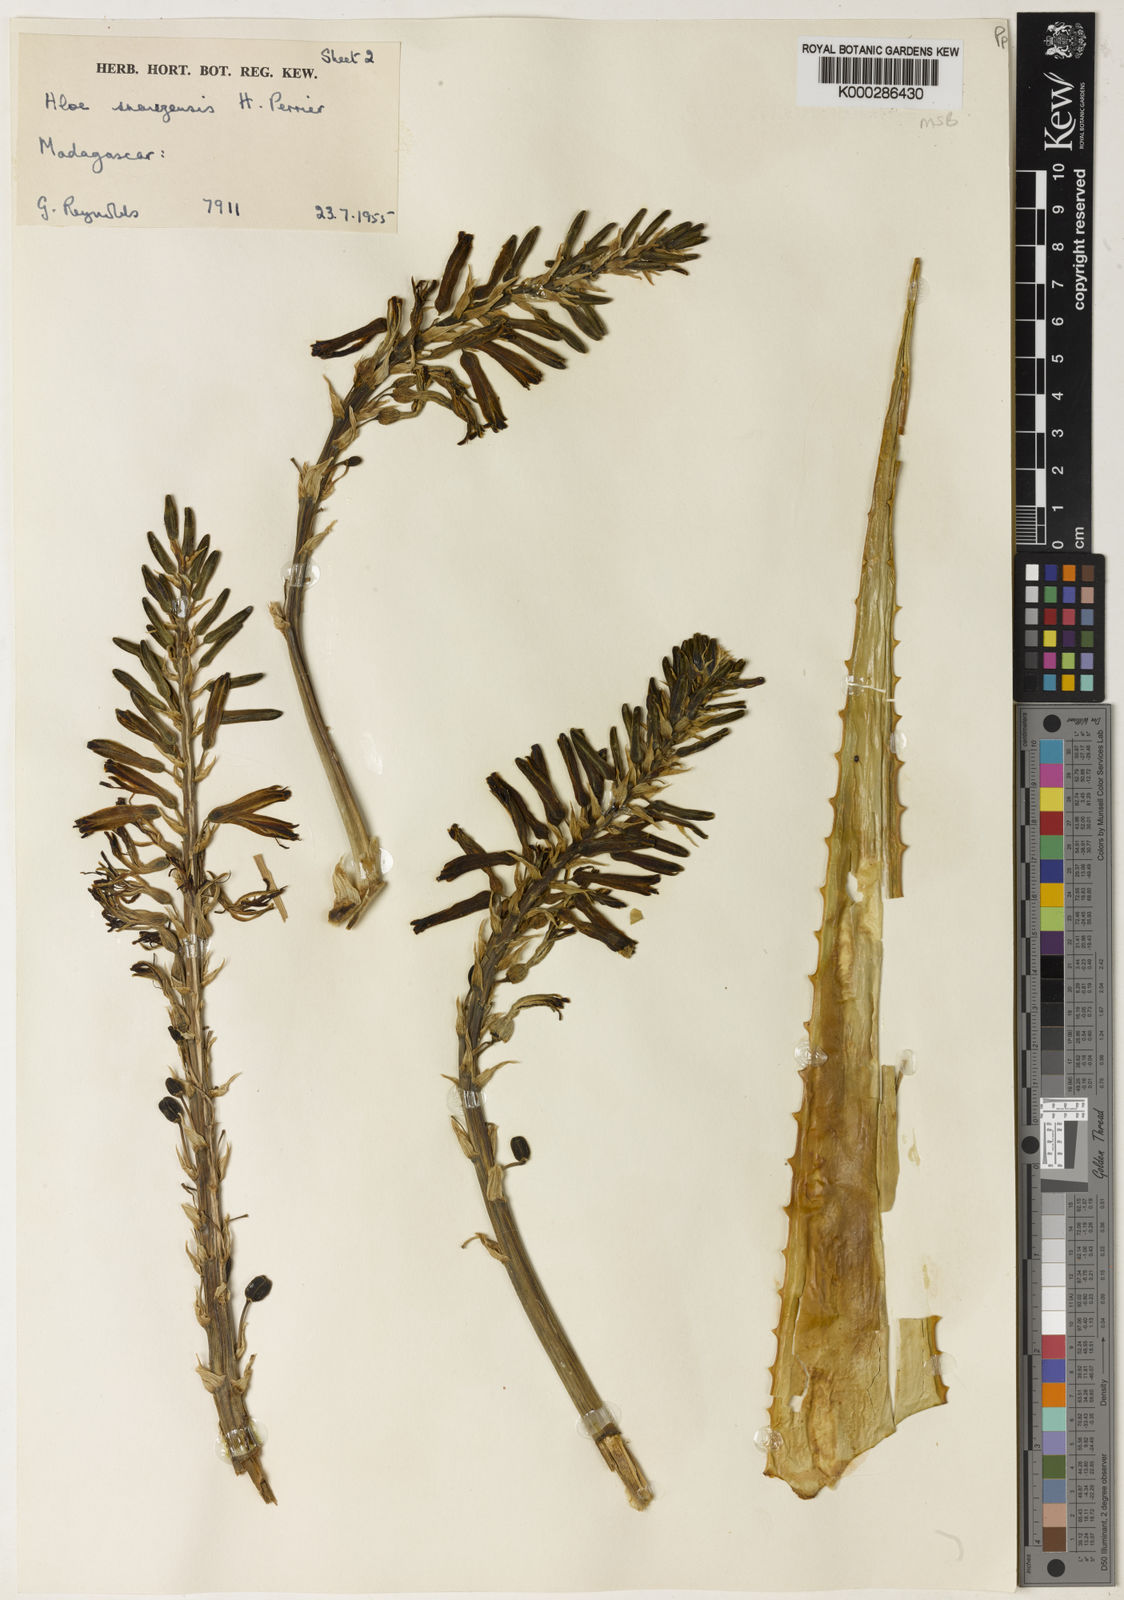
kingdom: Plantae
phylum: Tracheophyta
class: Liliopsida
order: Asparagales
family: Asphodelaceae
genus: Aloe
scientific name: Aloe
